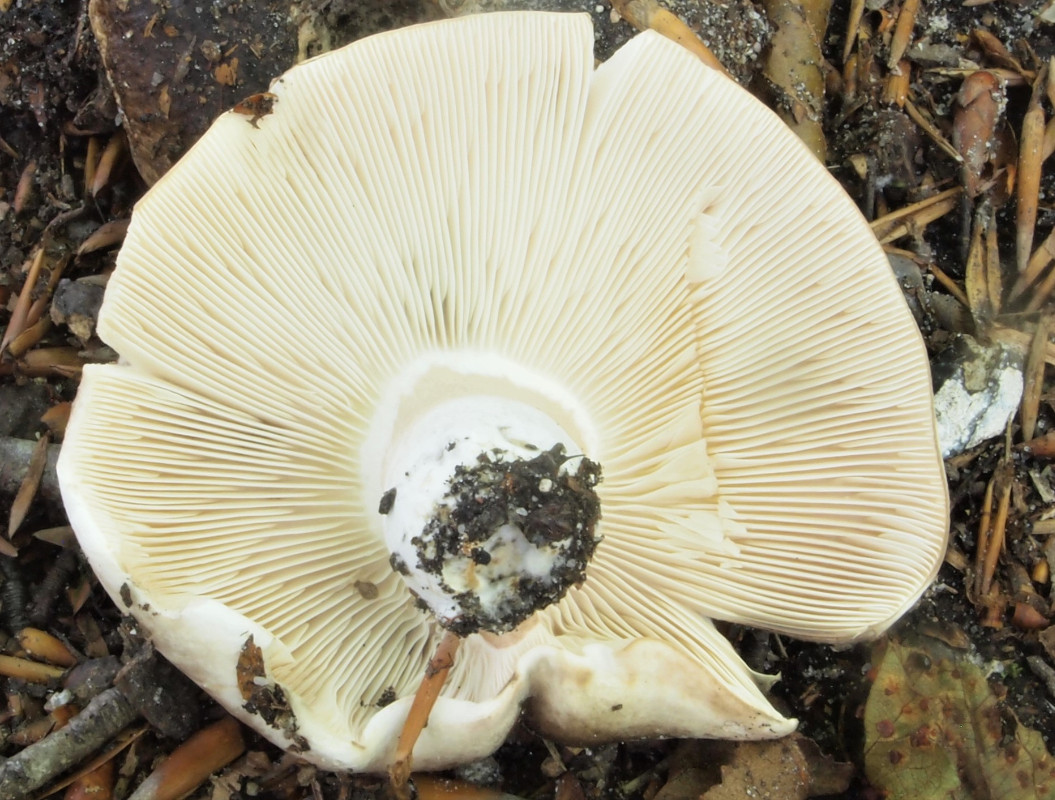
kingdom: Fungi
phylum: Basidiomycota
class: Agaricomycetes
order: Russulales
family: Russulaceae
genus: Russula
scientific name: Russula
